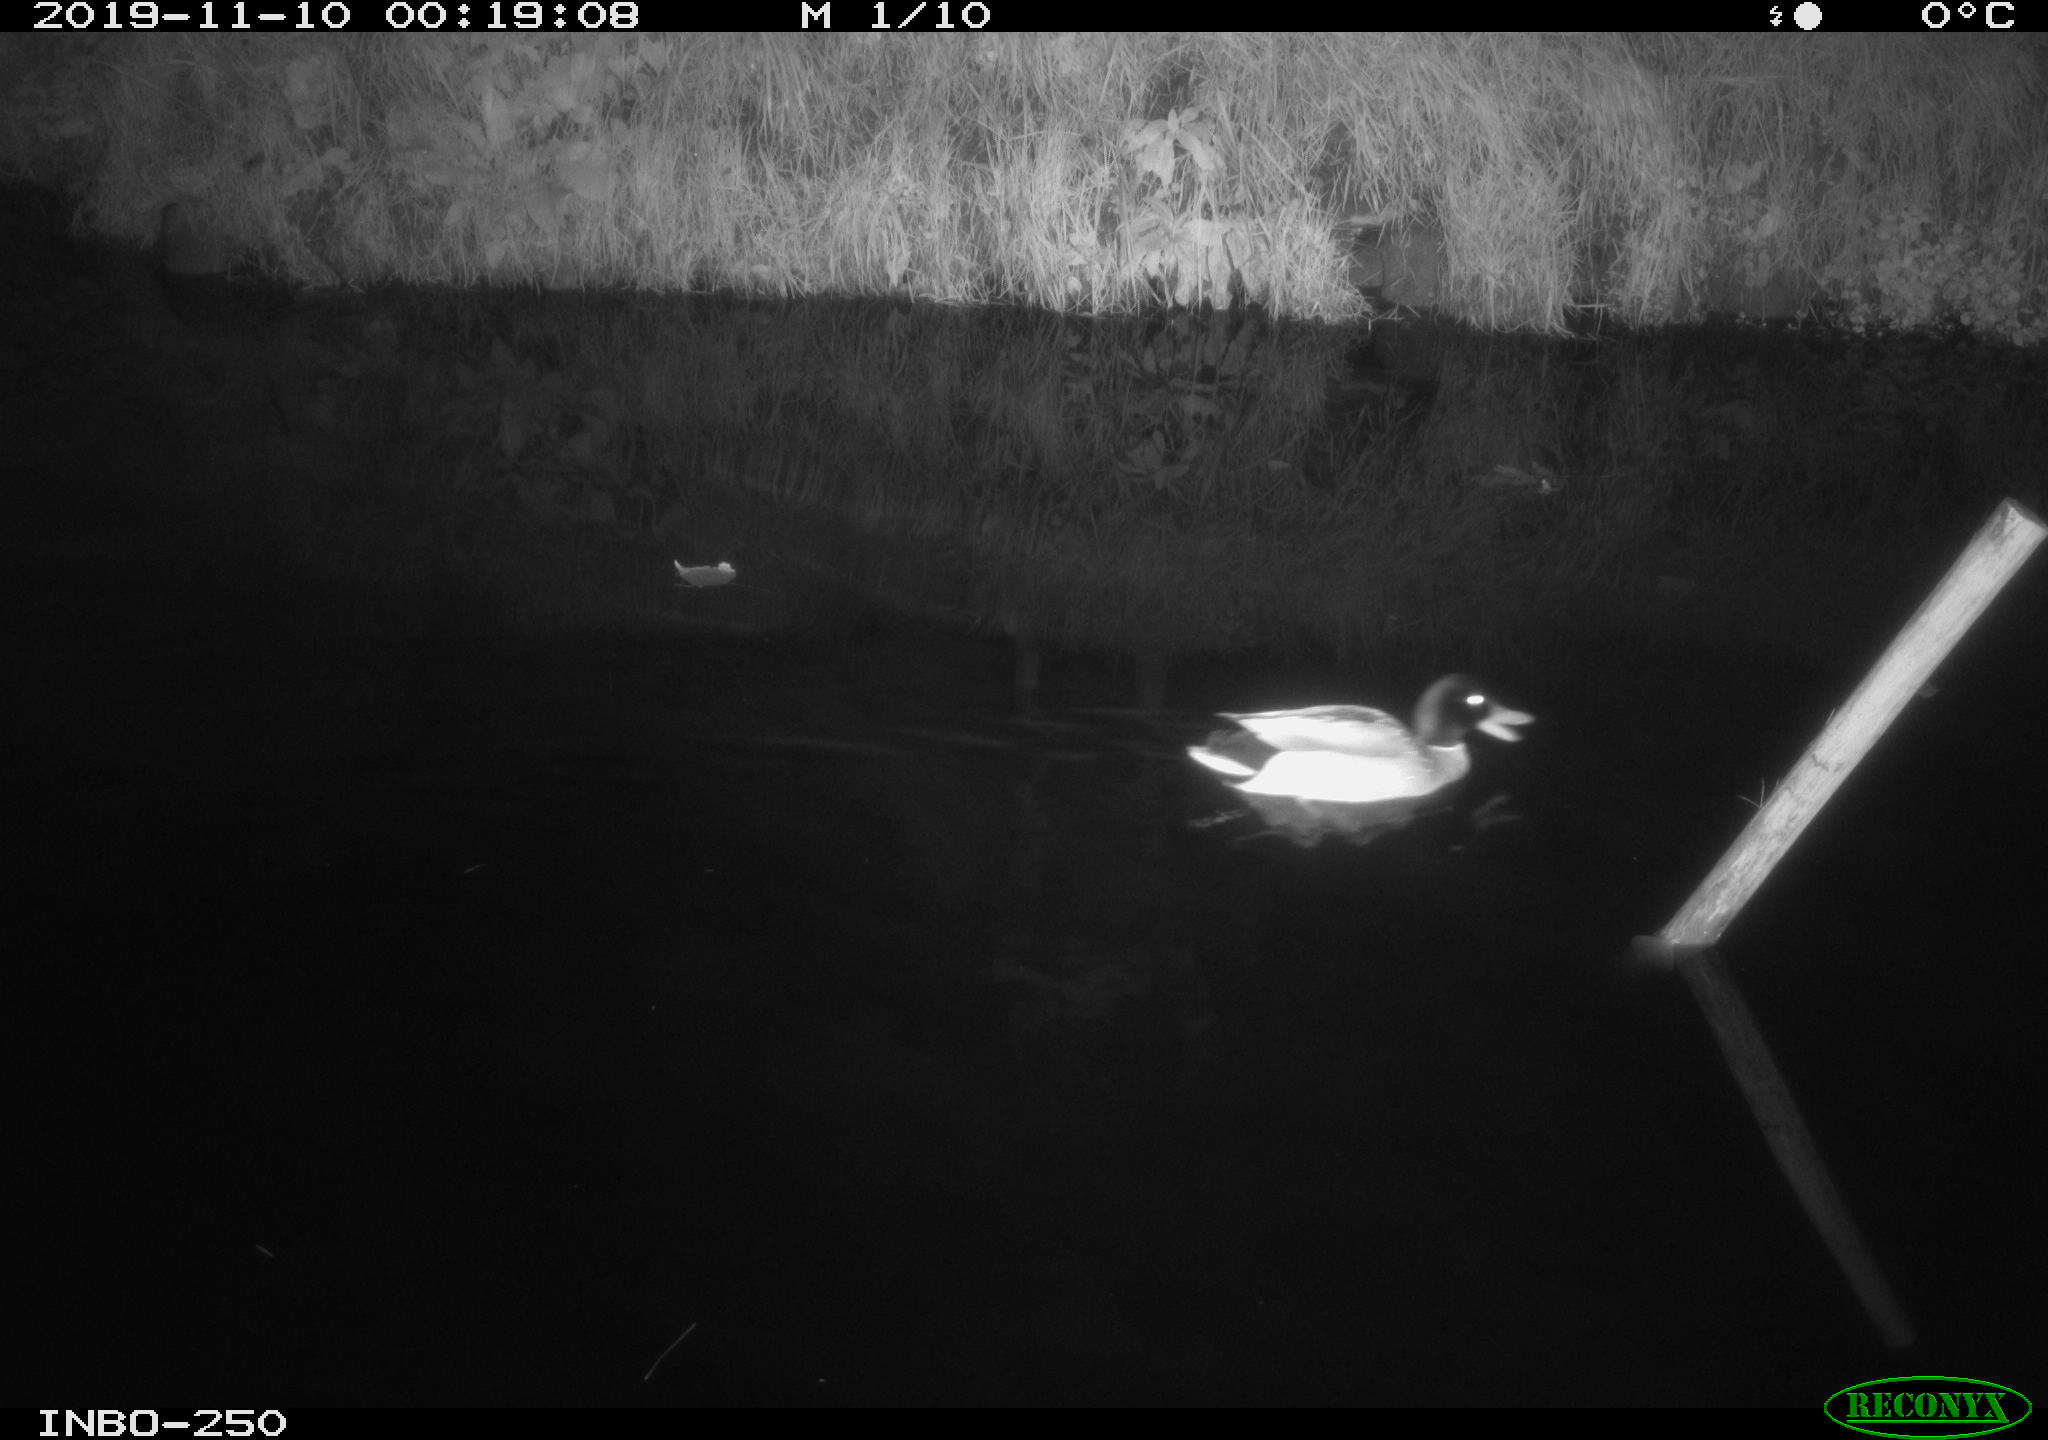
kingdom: Animalia
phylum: Chordata
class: Aves
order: Anseriformes
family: Anatidae
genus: Anas
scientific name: Anas platyrhynchos
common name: Mallard
